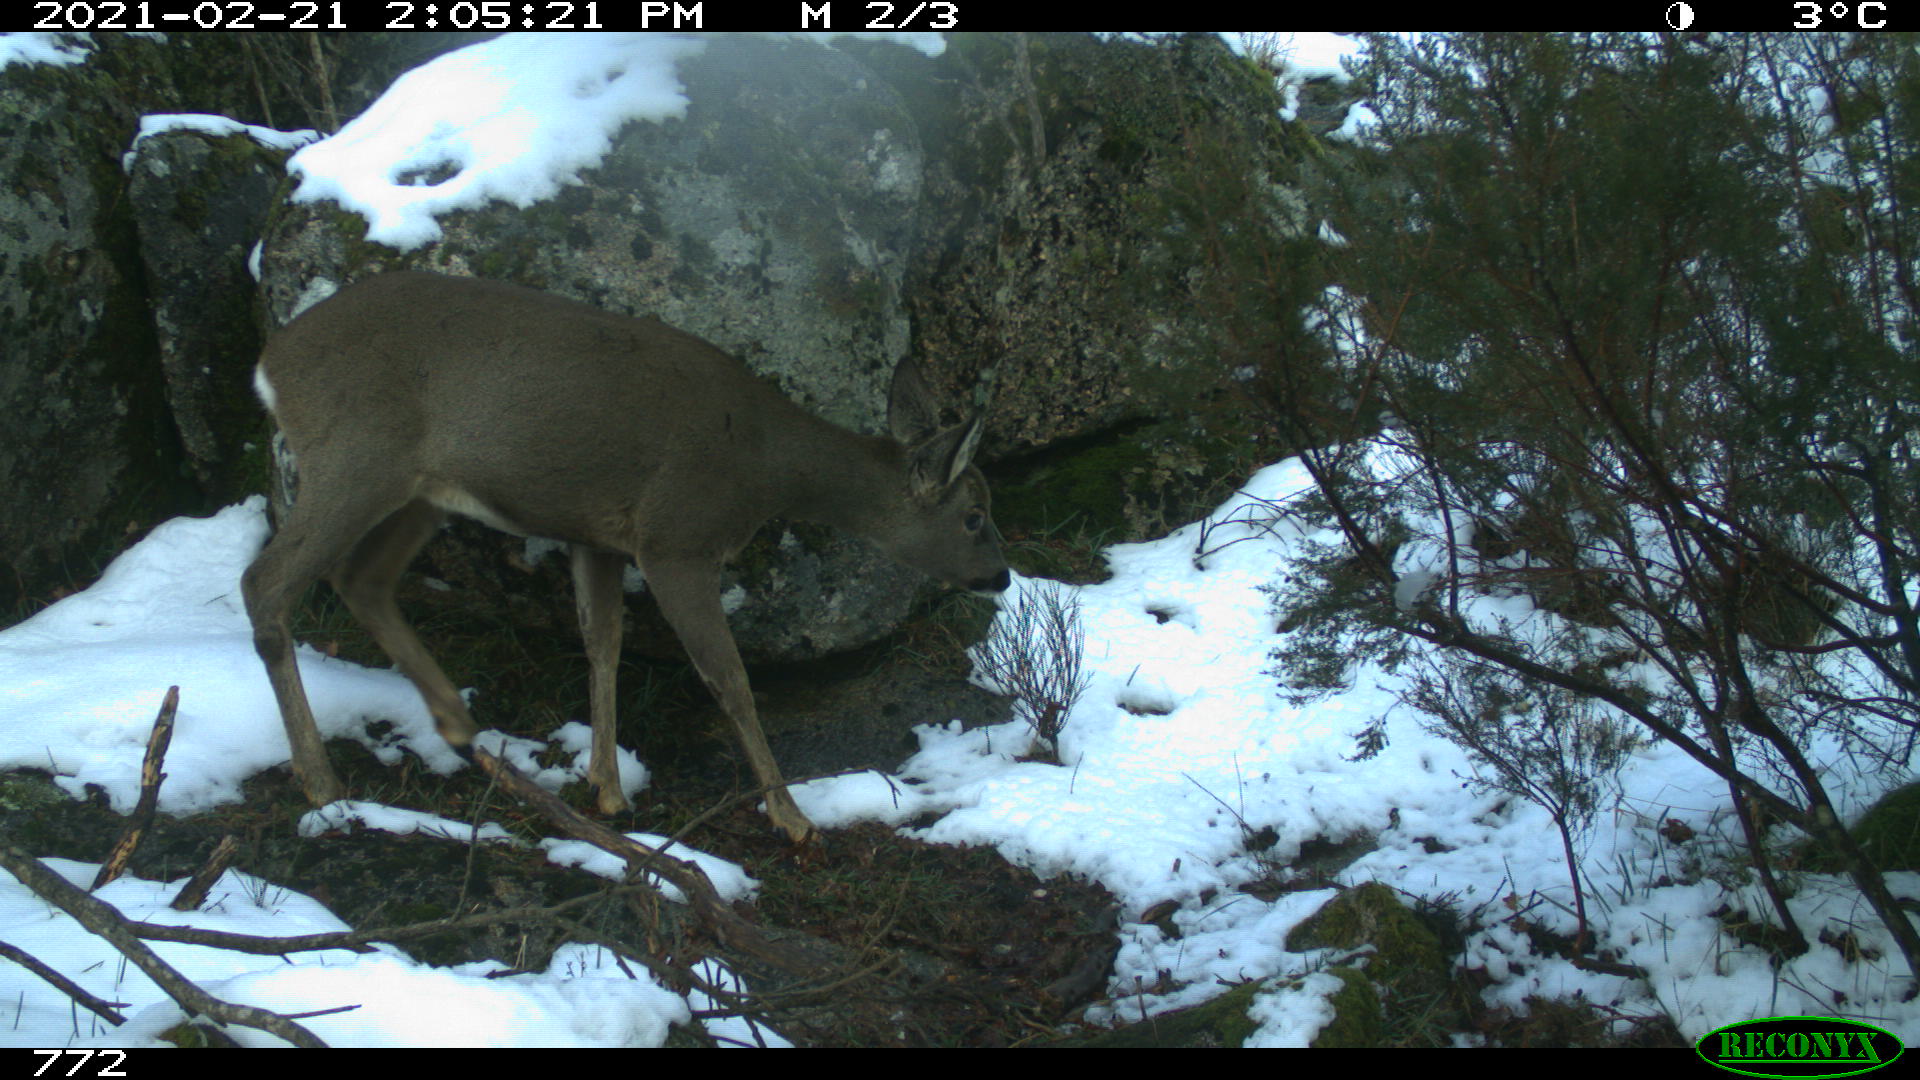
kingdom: Animalia
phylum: Chordata
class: Mammalia
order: Artiodactyla
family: Cervidae
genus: Capreolus
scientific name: Capreolus capreolus
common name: Western roe deer
